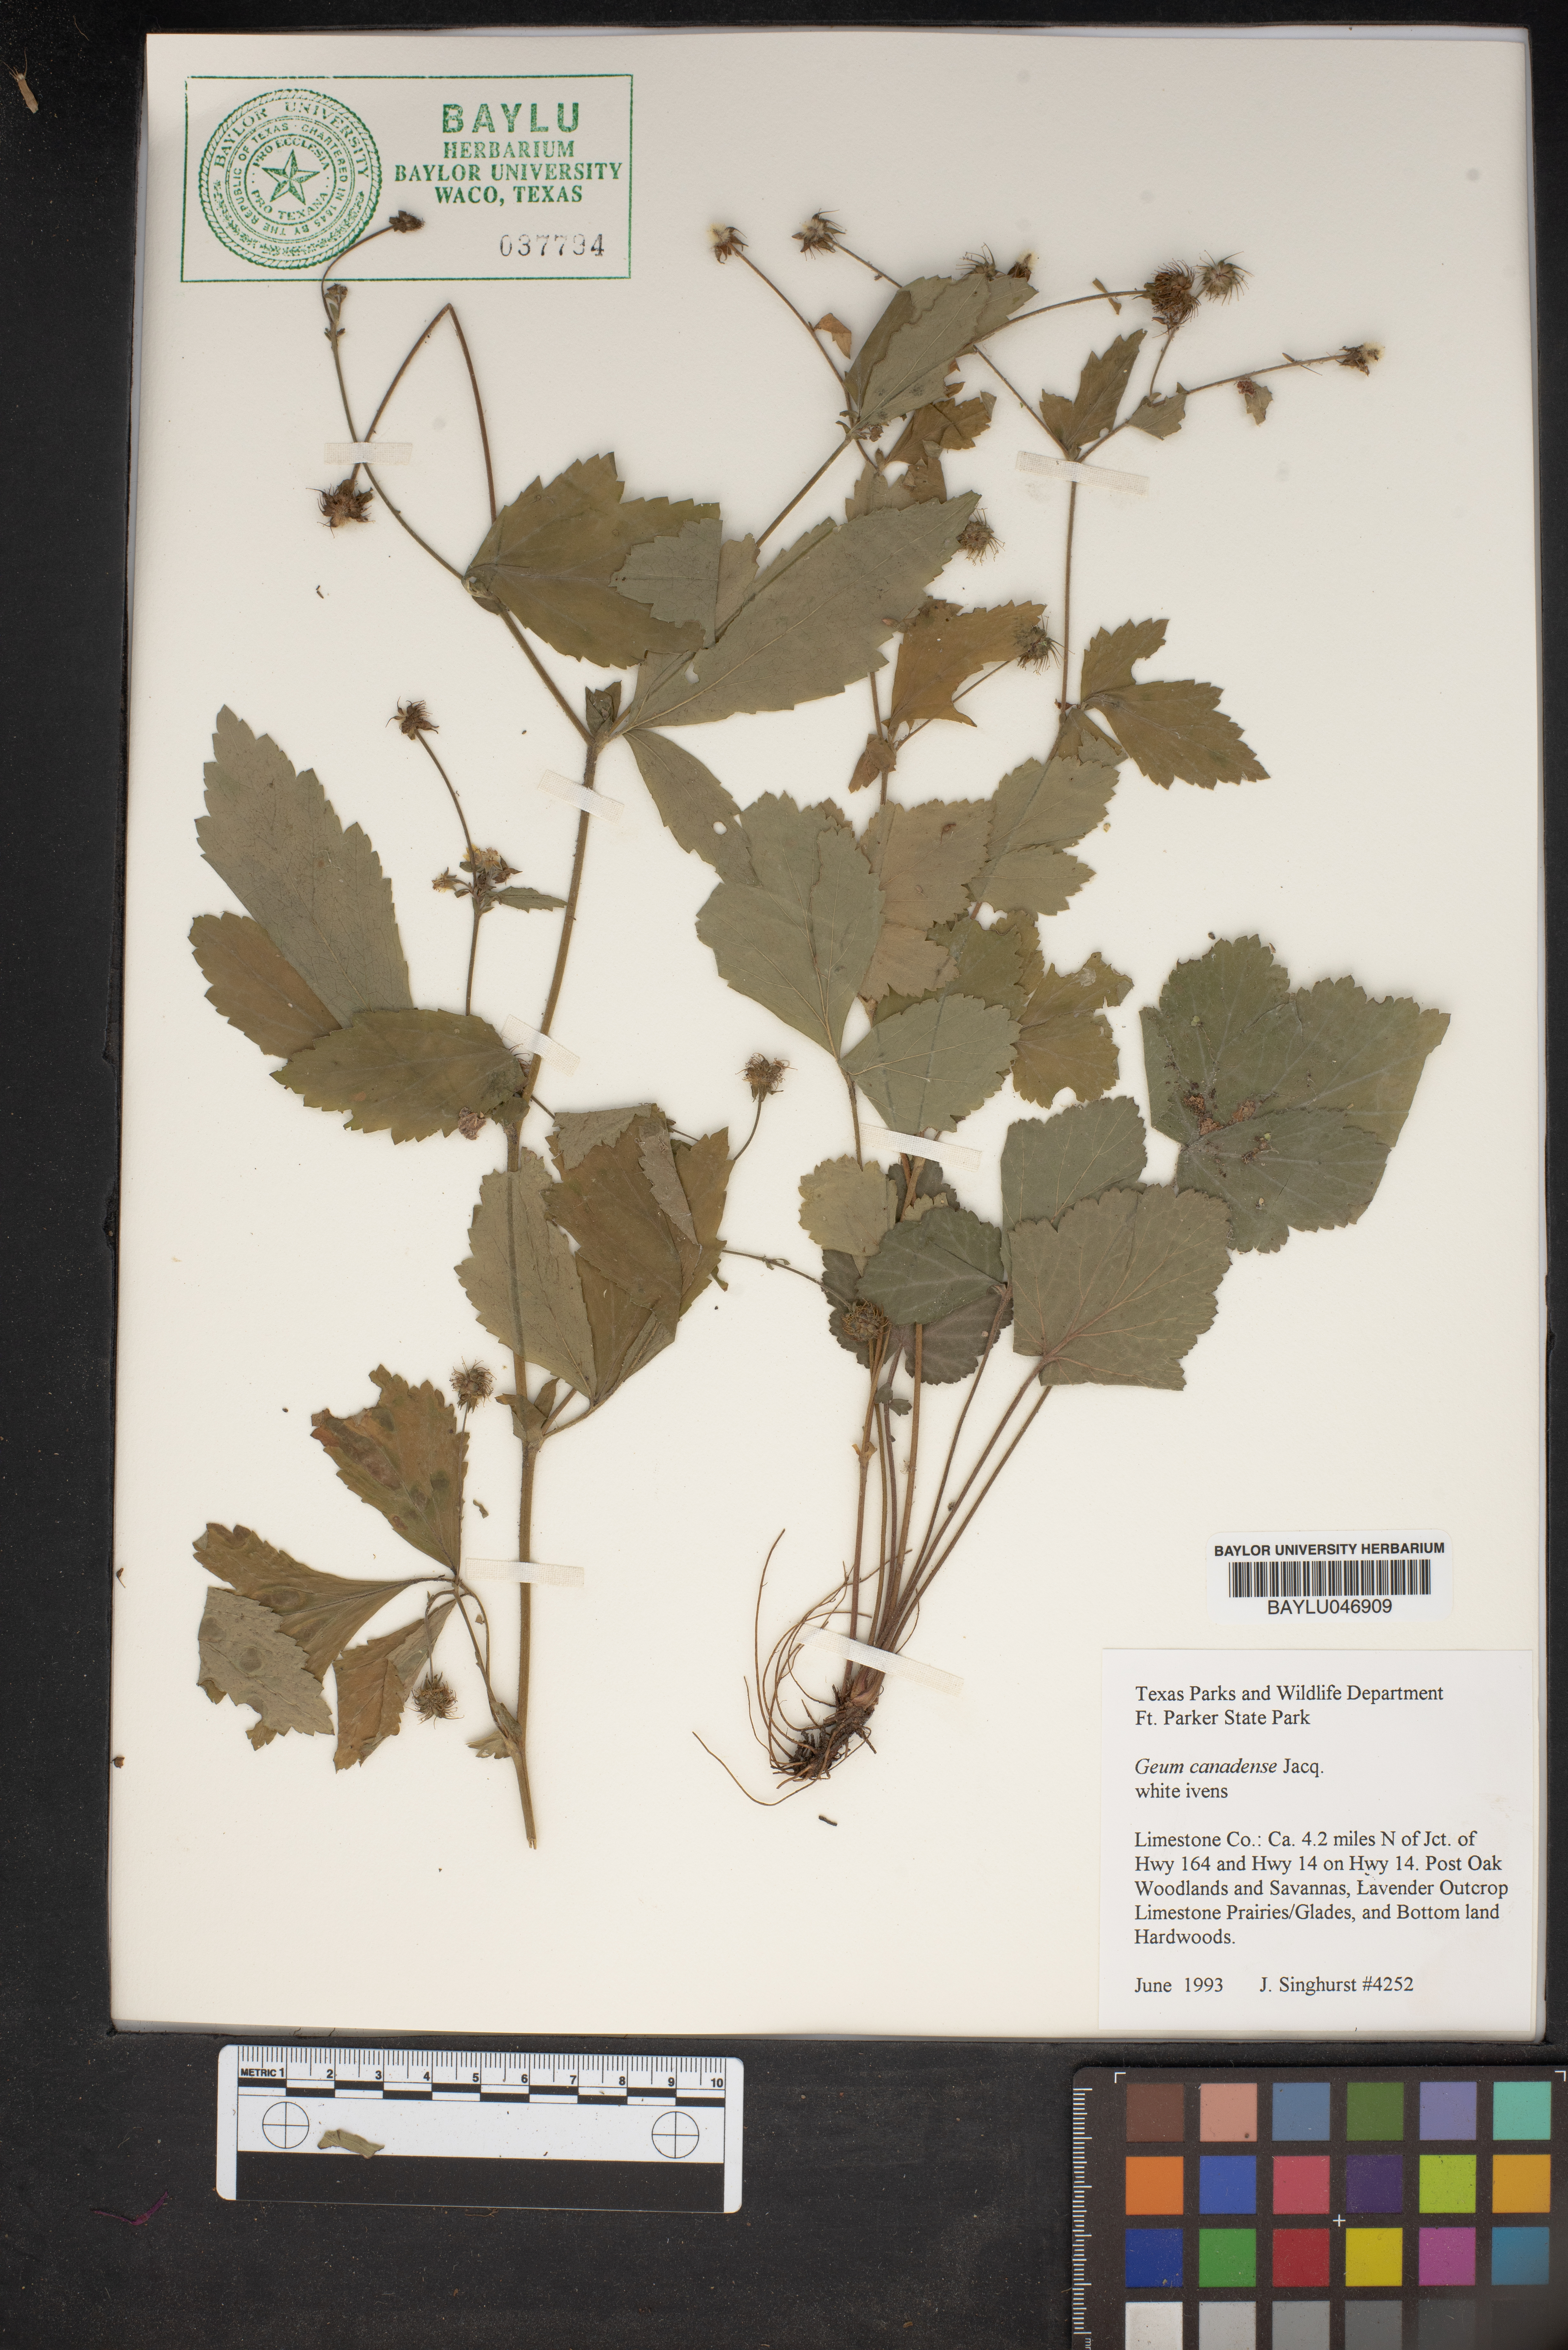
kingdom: Plantae
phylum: Tracheophyta
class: Magnoliopsida
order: Rosales
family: Rosaceae
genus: Geum
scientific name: Geum canadense
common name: White avens
